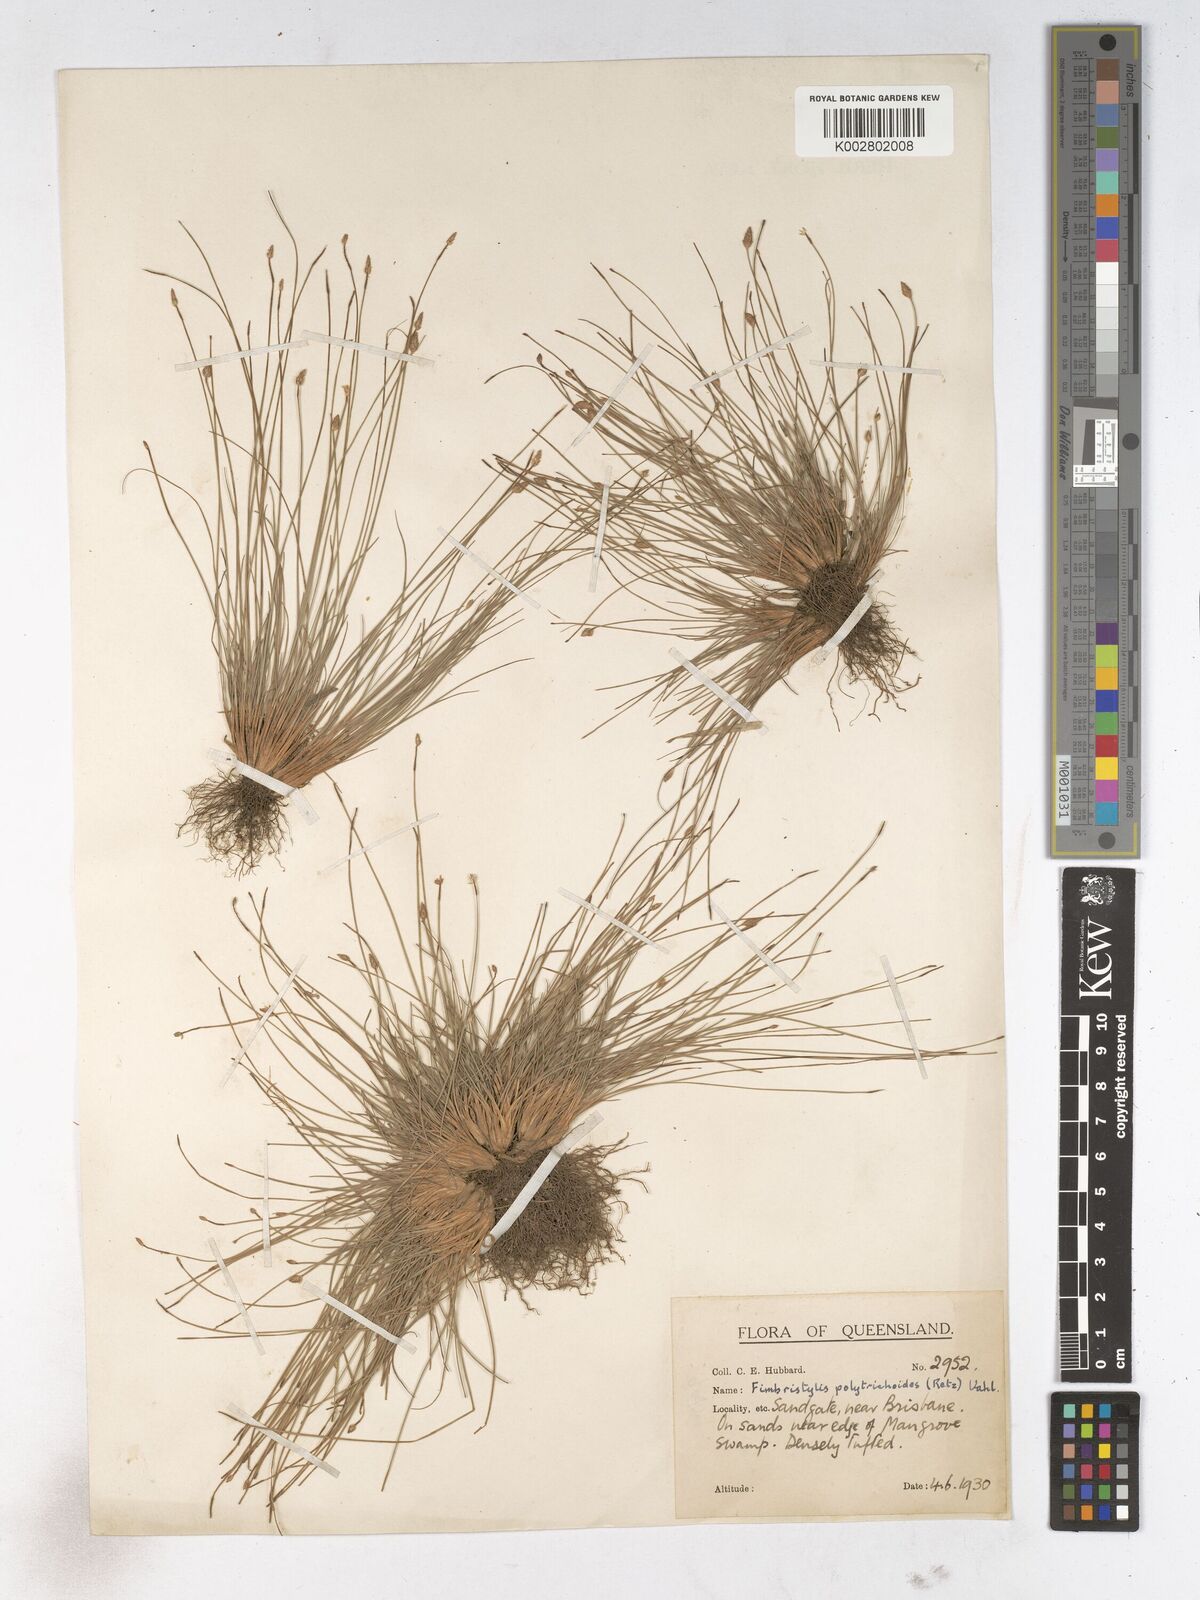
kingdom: Plantae
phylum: Tracheophyta
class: Liliopsida
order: Poales
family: Cyperaceae
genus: Fimbristylis
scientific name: Fimbristylis polytrichoides
